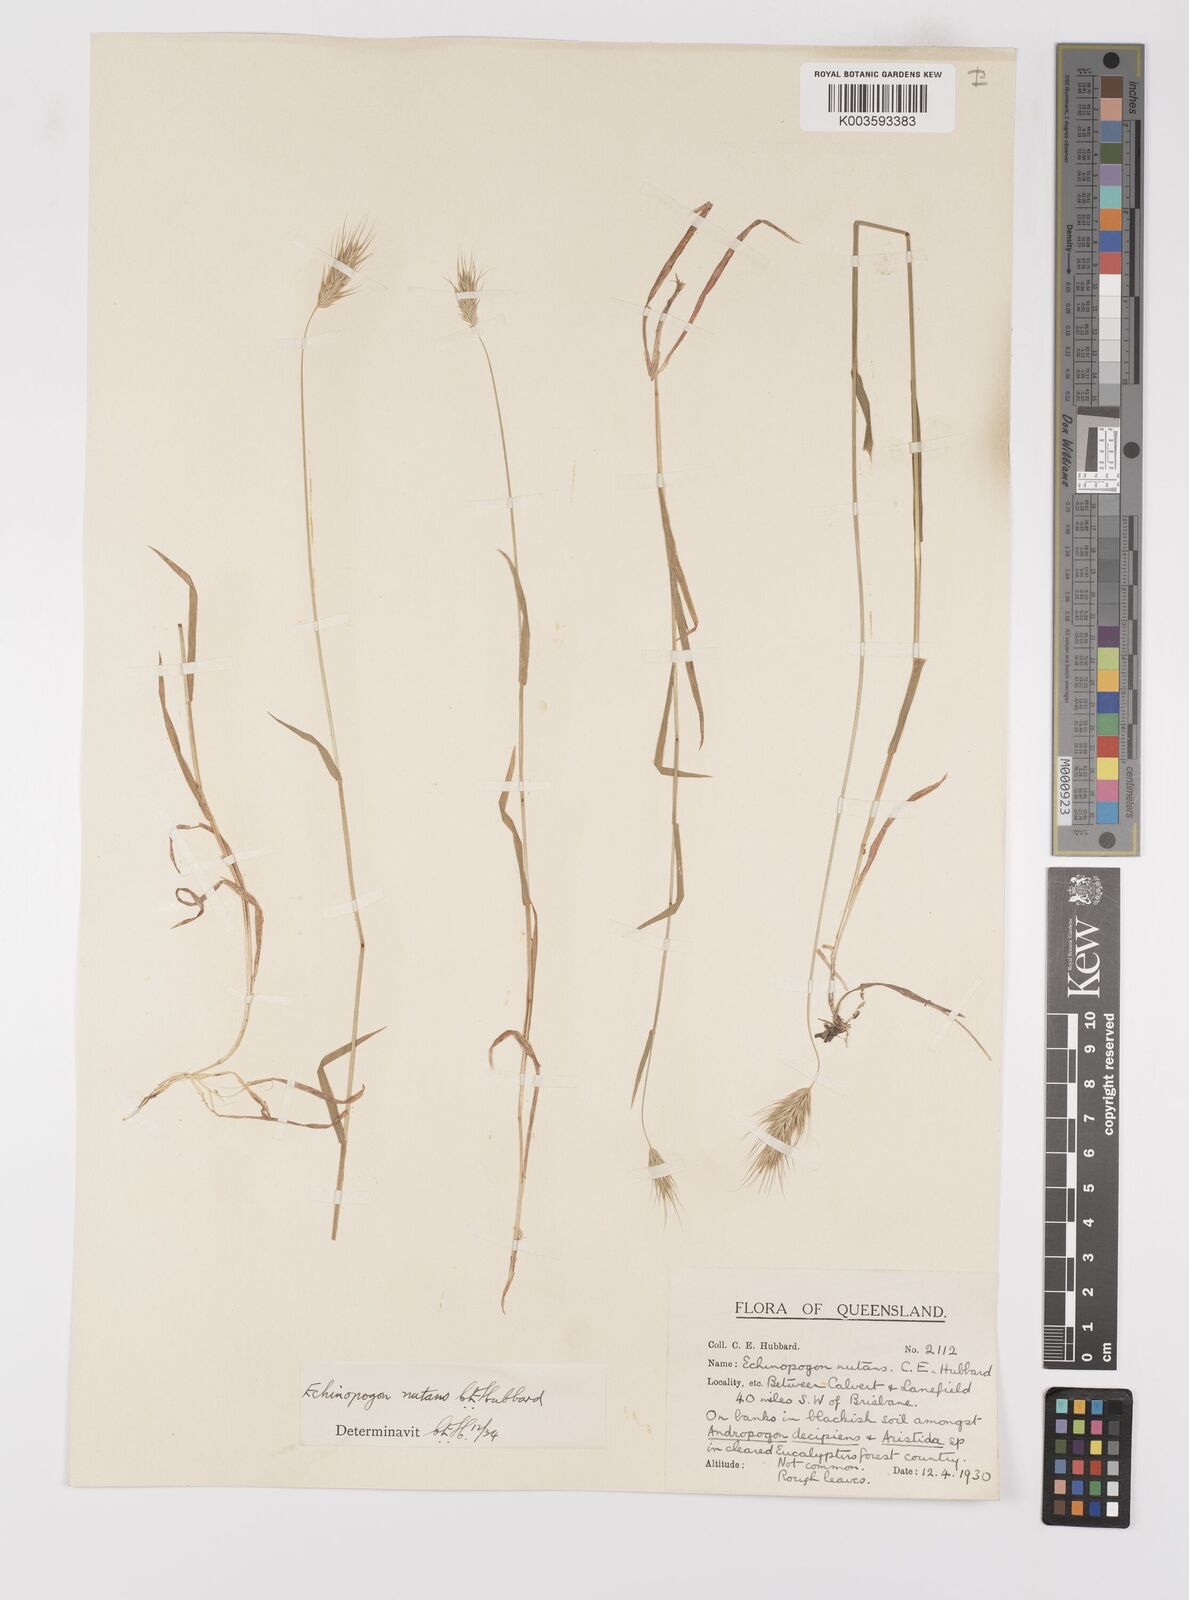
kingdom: Plantae
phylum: Tracheophyta
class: Liliopsida
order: Poales
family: Poaceae
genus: Echinopogon
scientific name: Echinopogon nutans
